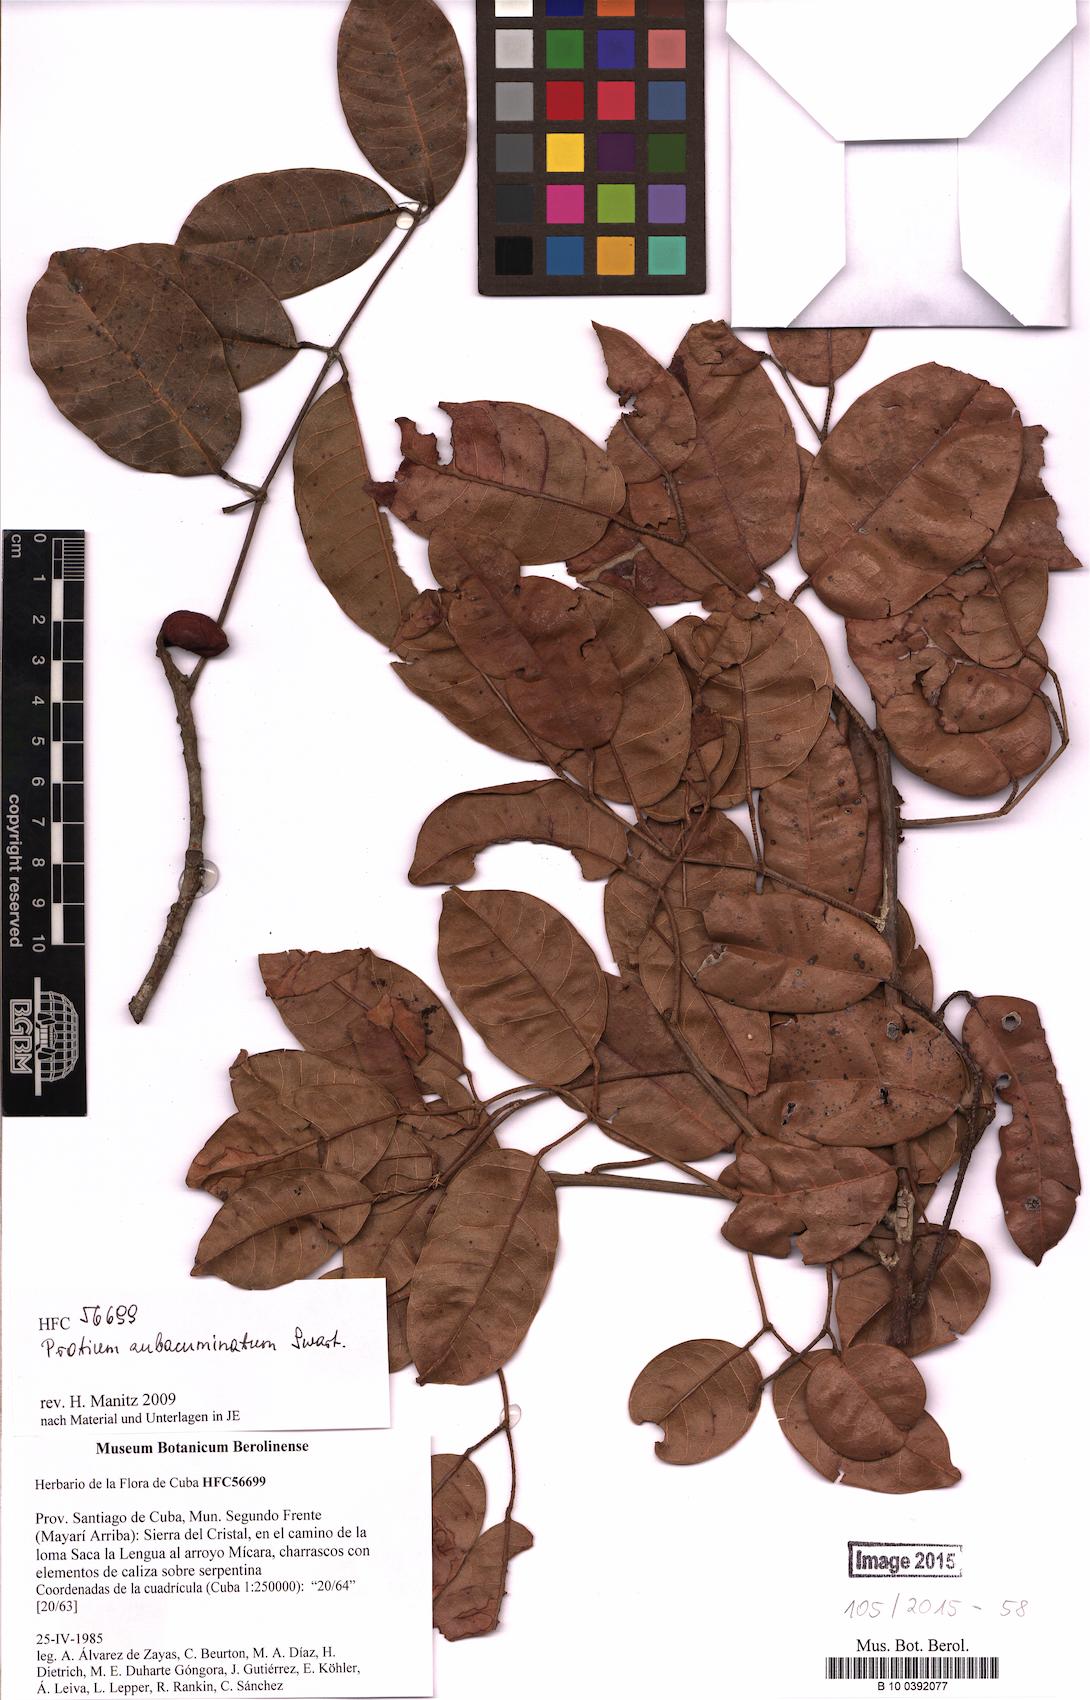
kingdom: Plantae
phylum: Tracheophyta
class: Magnoliopsida
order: Sapindales
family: Burseraceae
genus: Protium
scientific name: Protium subacuminatum
